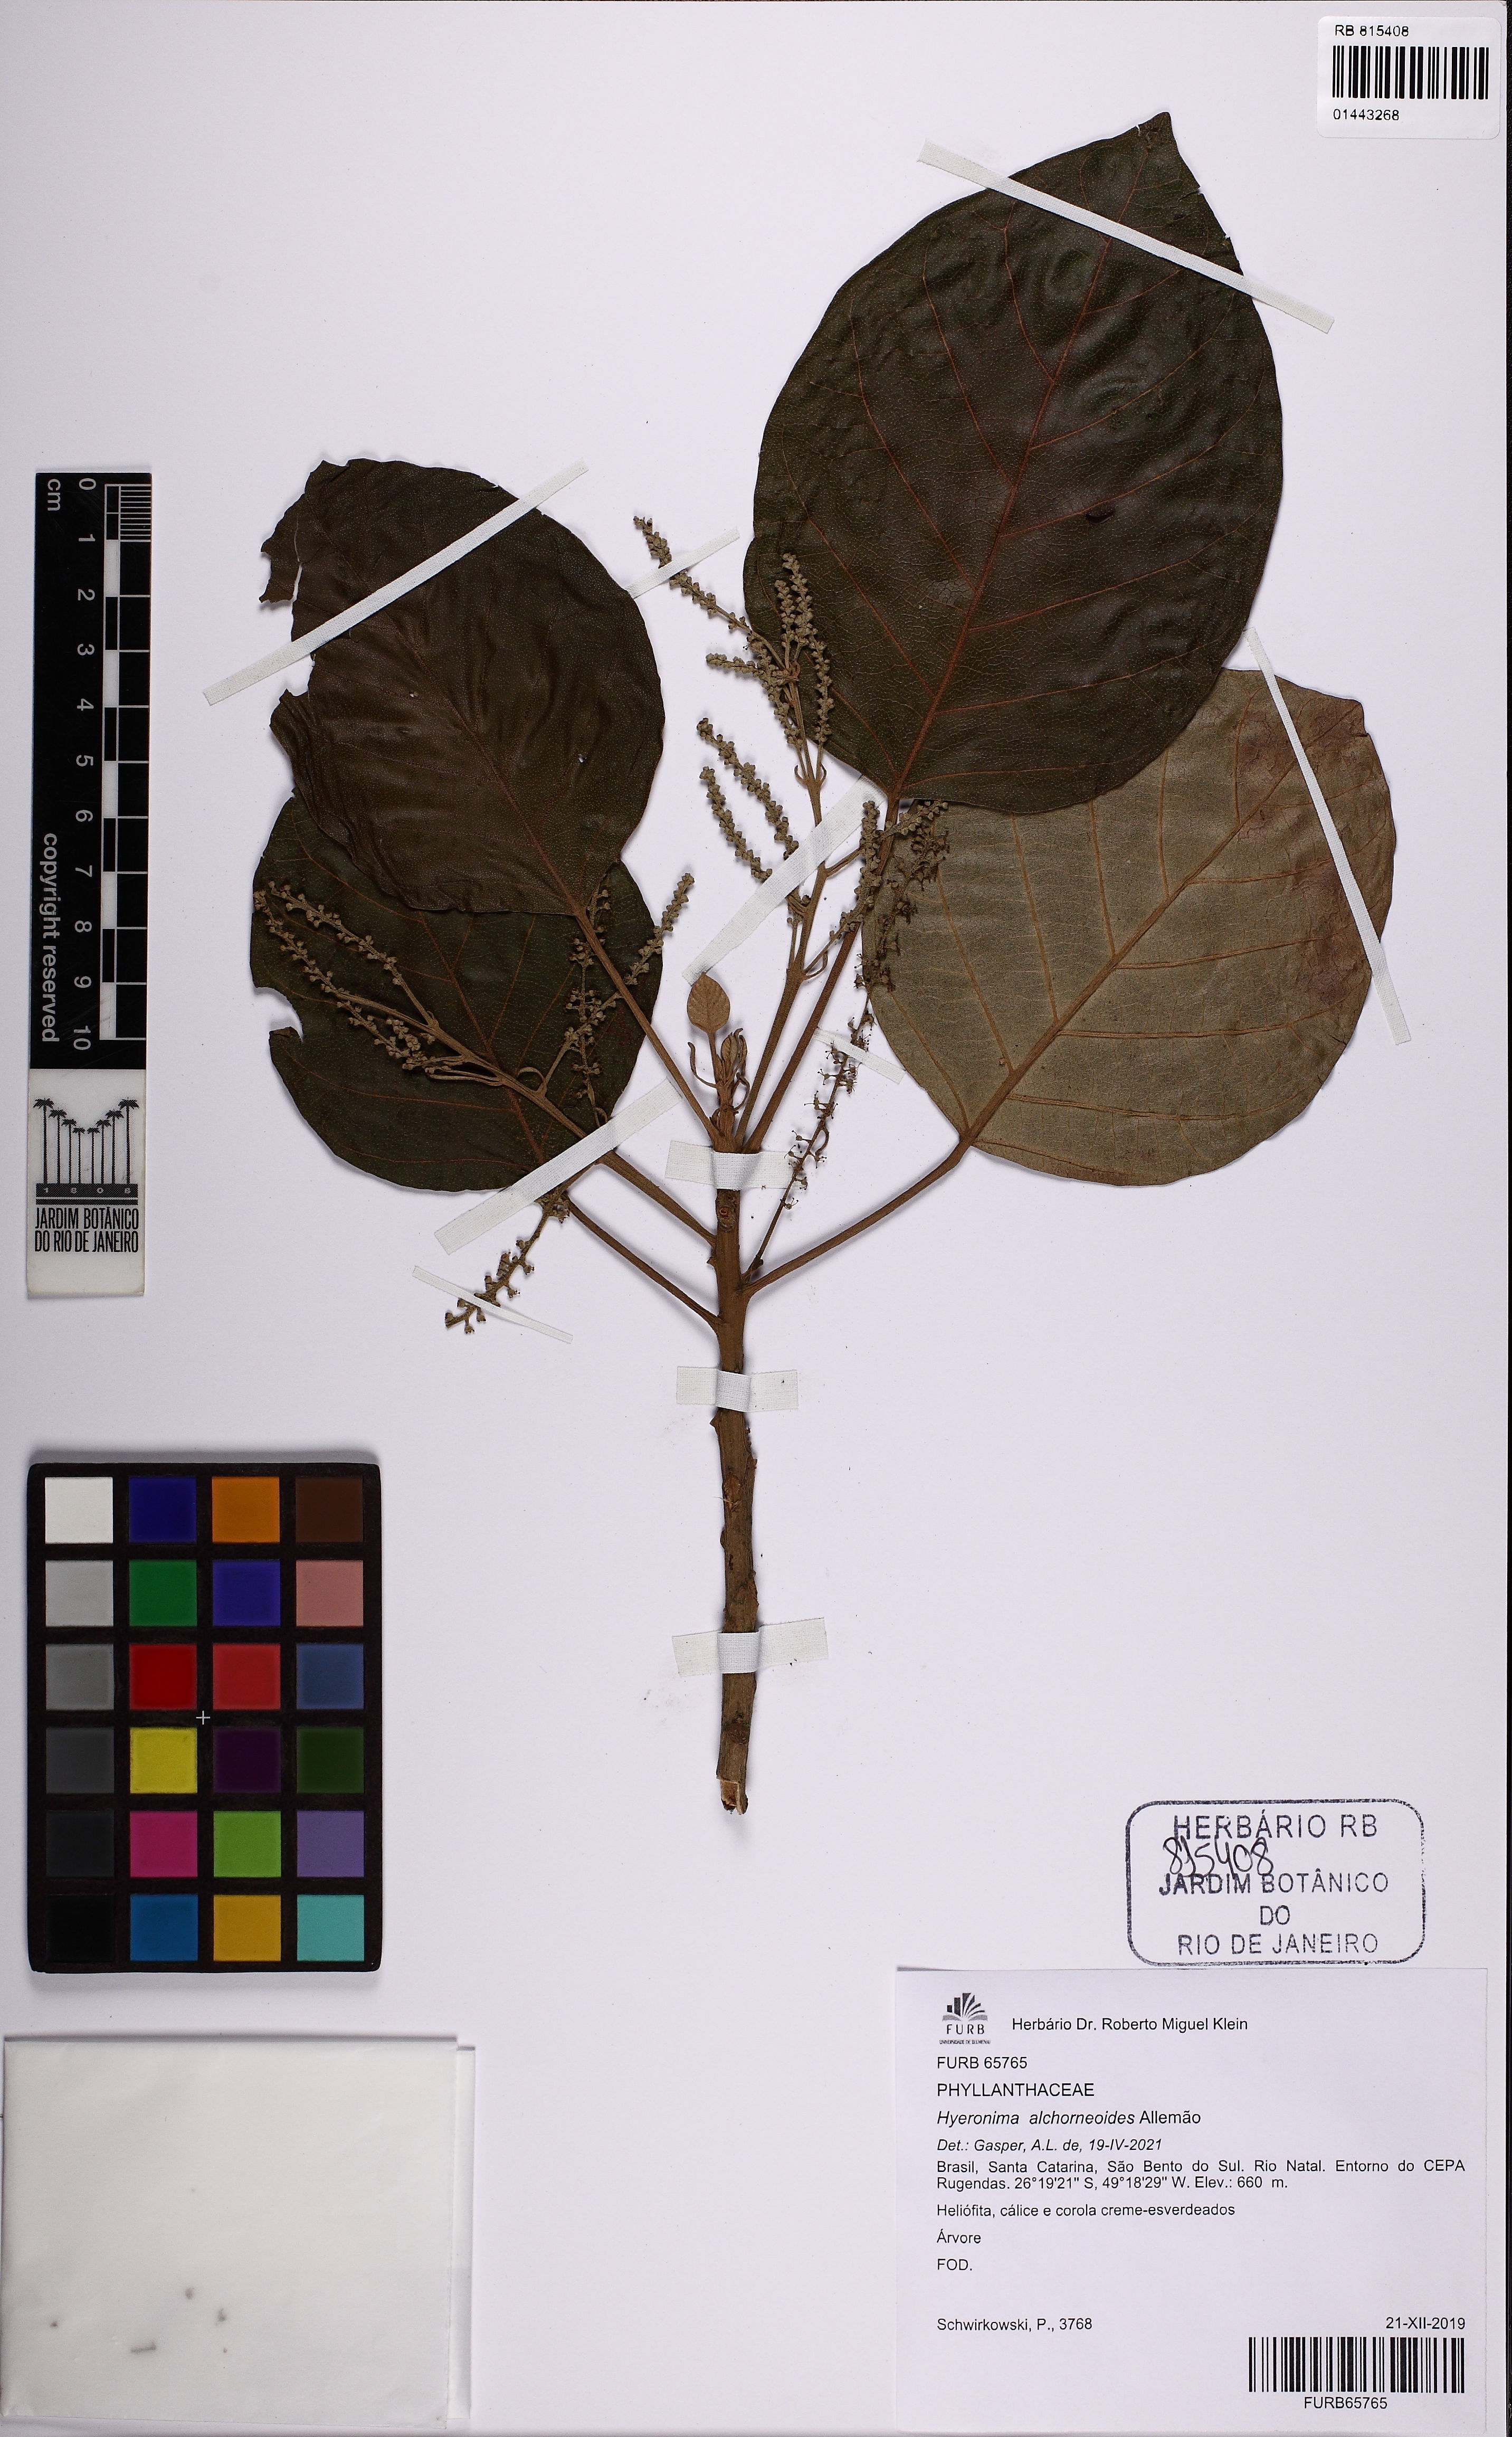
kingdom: Plantae
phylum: Tracheophyta
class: Magnoliopsida
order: Malpighiales
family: Phyllanthaceae
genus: Hieronyma
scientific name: Hieronyma alchorneoides
